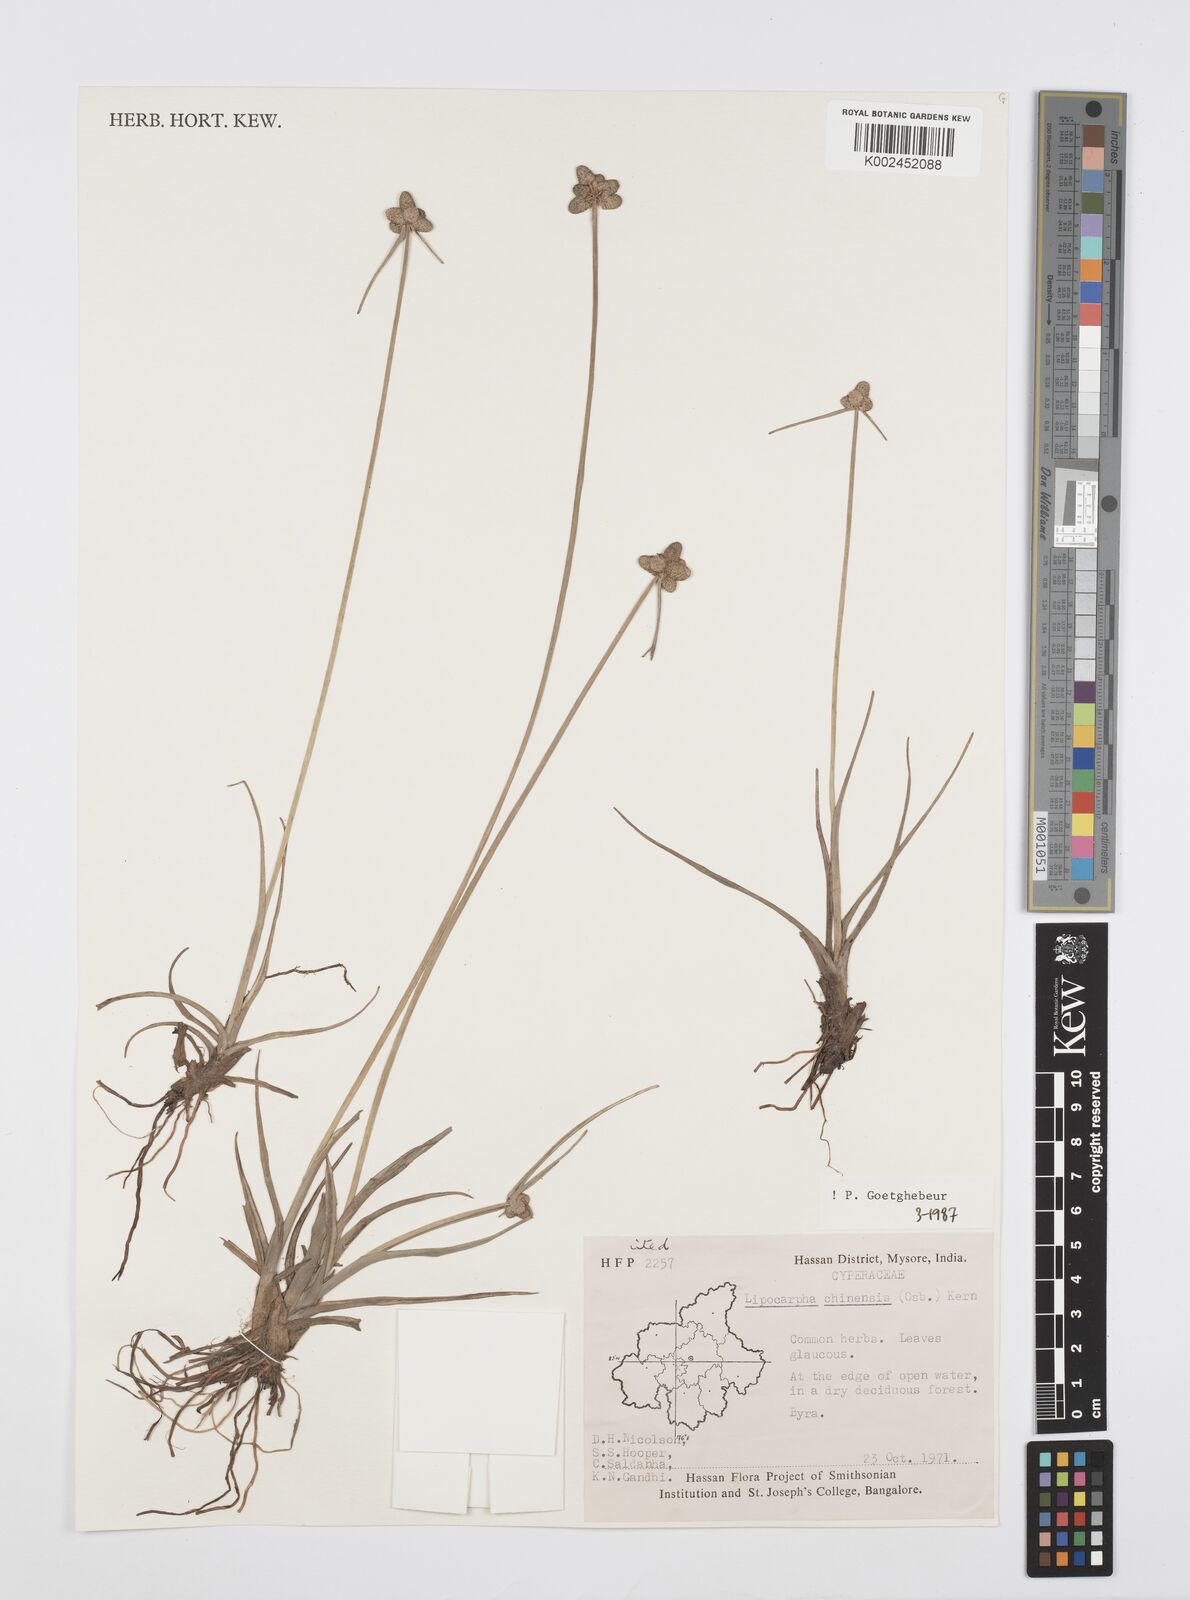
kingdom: Plantae
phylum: Tracheophyta
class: Liliopsida
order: Poales
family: Cyperaceae
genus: Cyperus
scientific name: Cyperus
